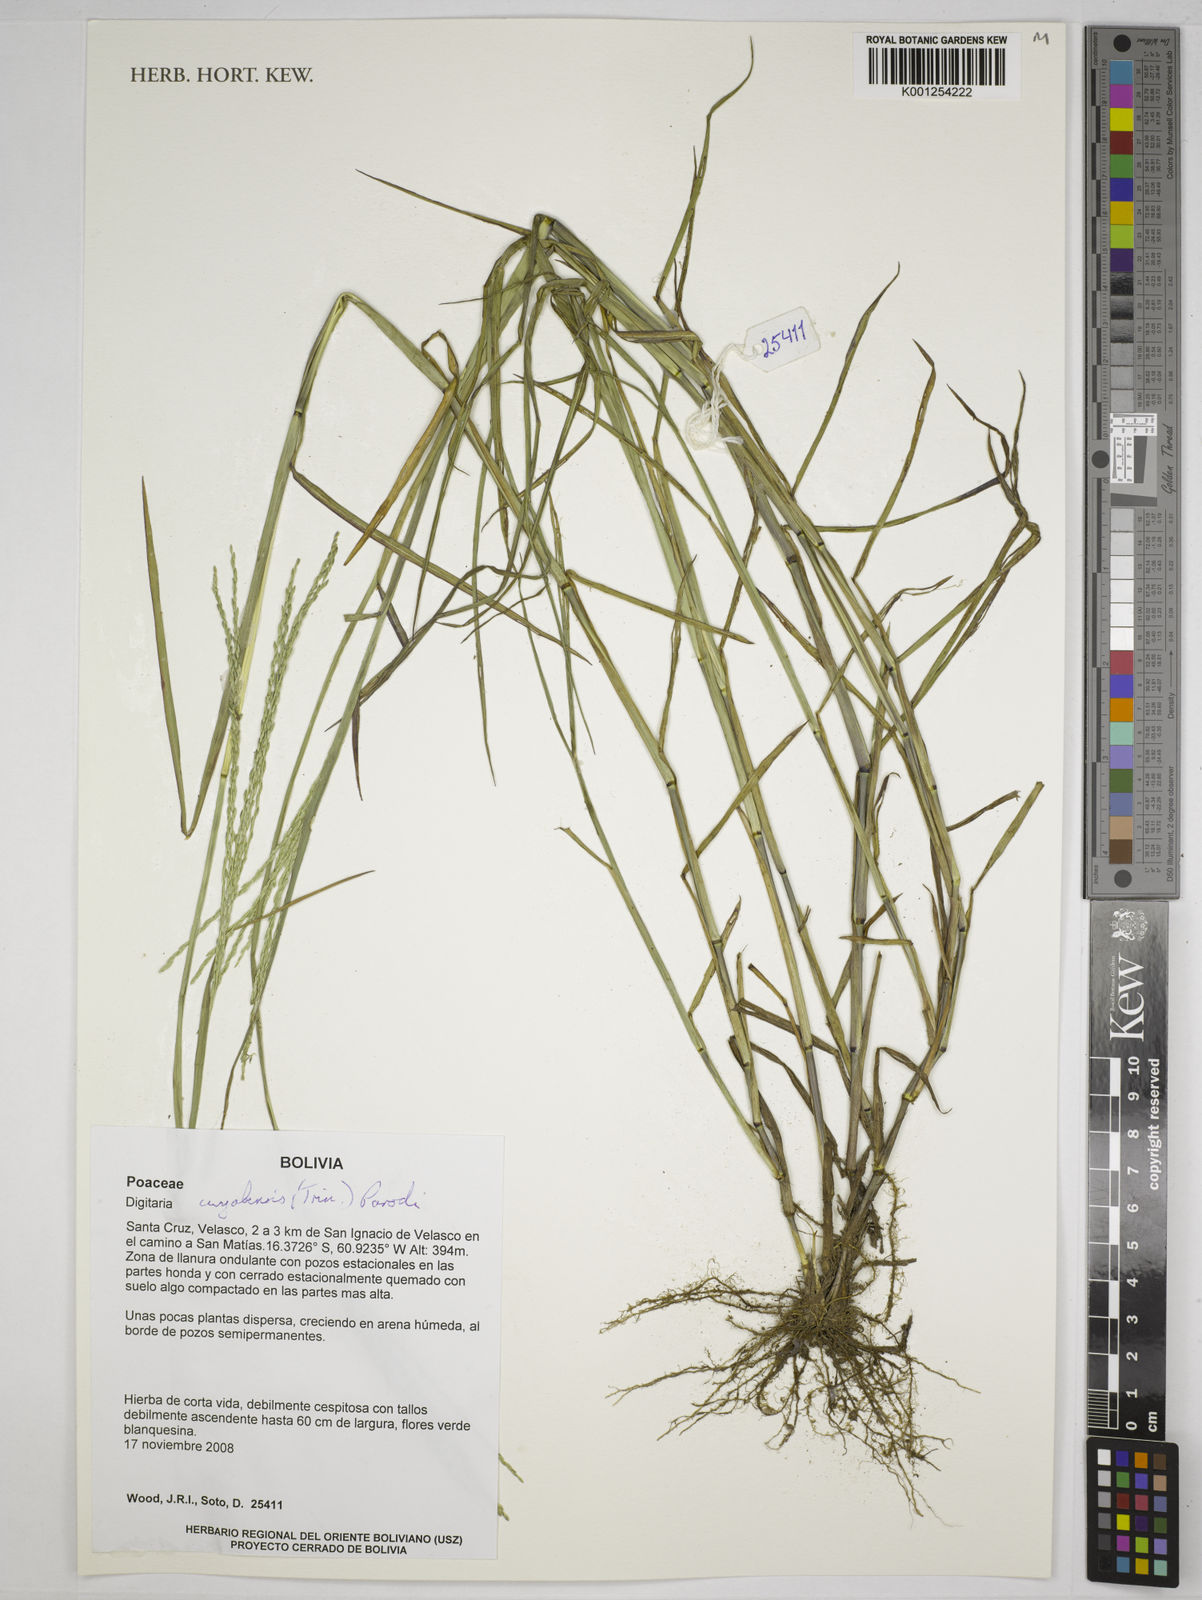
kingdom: Plantae
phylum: Tracheophyta
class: Liliopsida
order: Poales
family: Poaceae
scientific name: Poaceae
